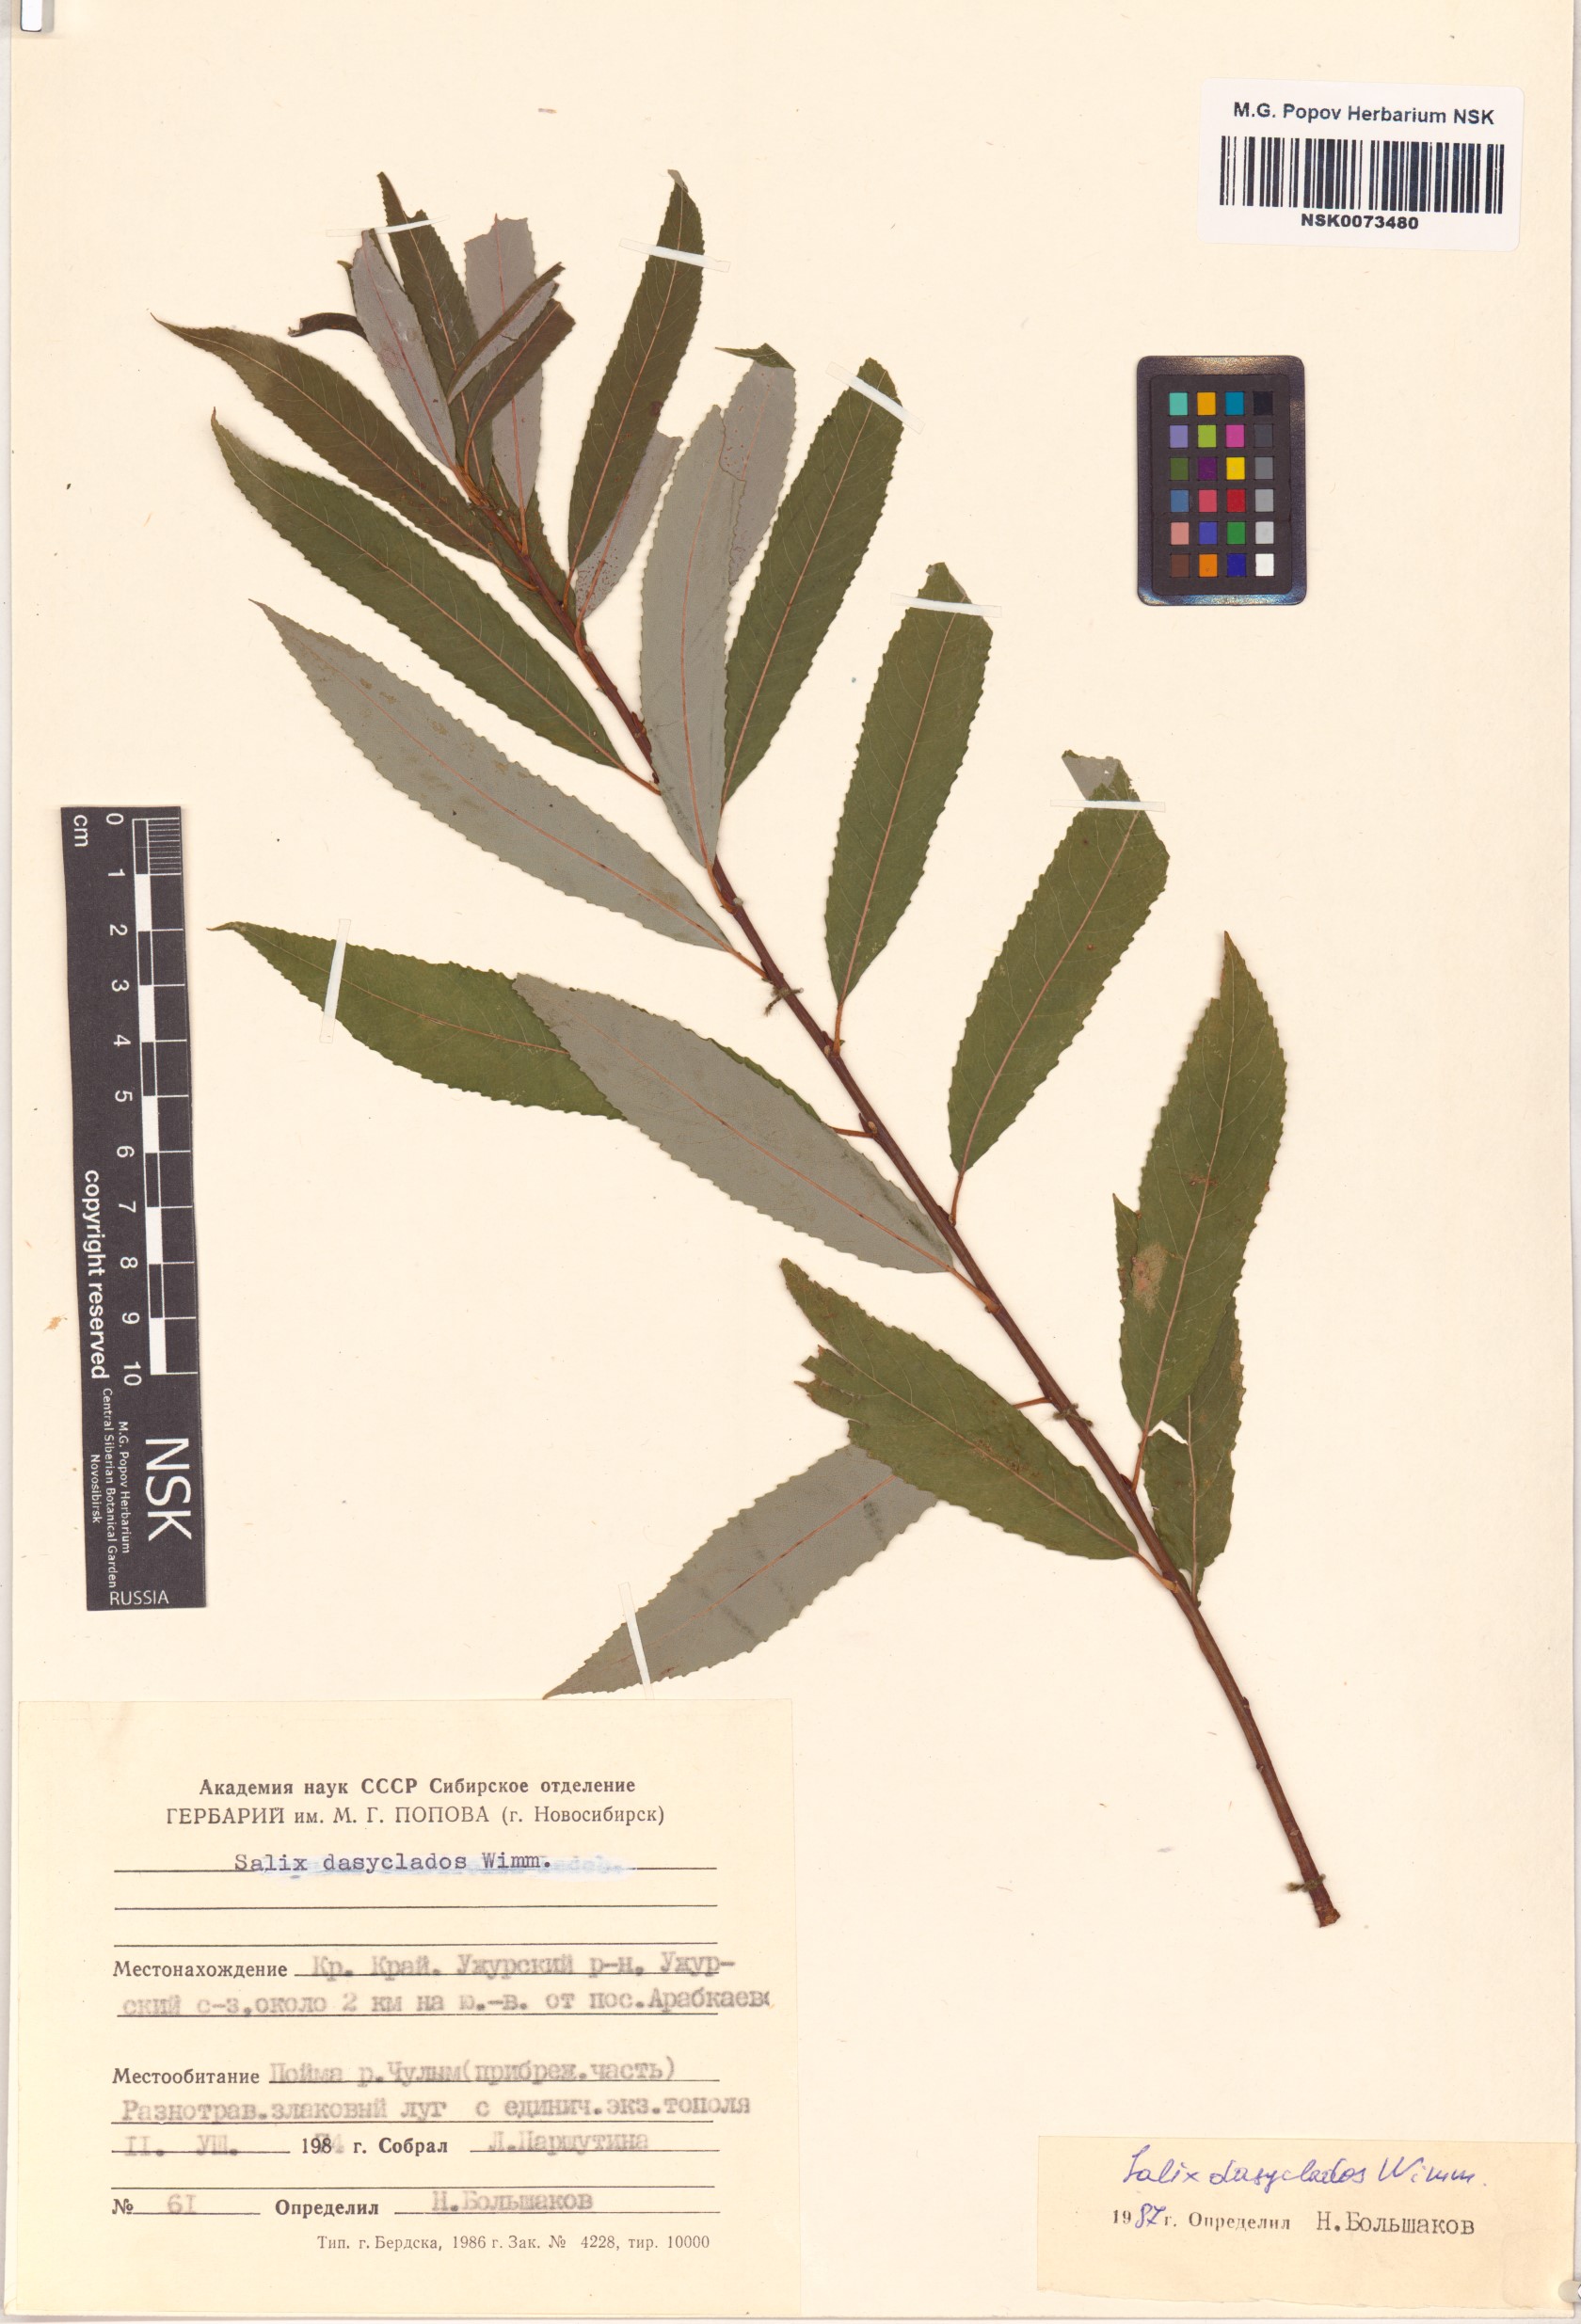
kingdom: Plantae
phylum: Tracheophyta
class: Magnoliopsida
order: Malpighiales
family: Salicaceae
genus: Salix
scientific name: Salix gmelinii
